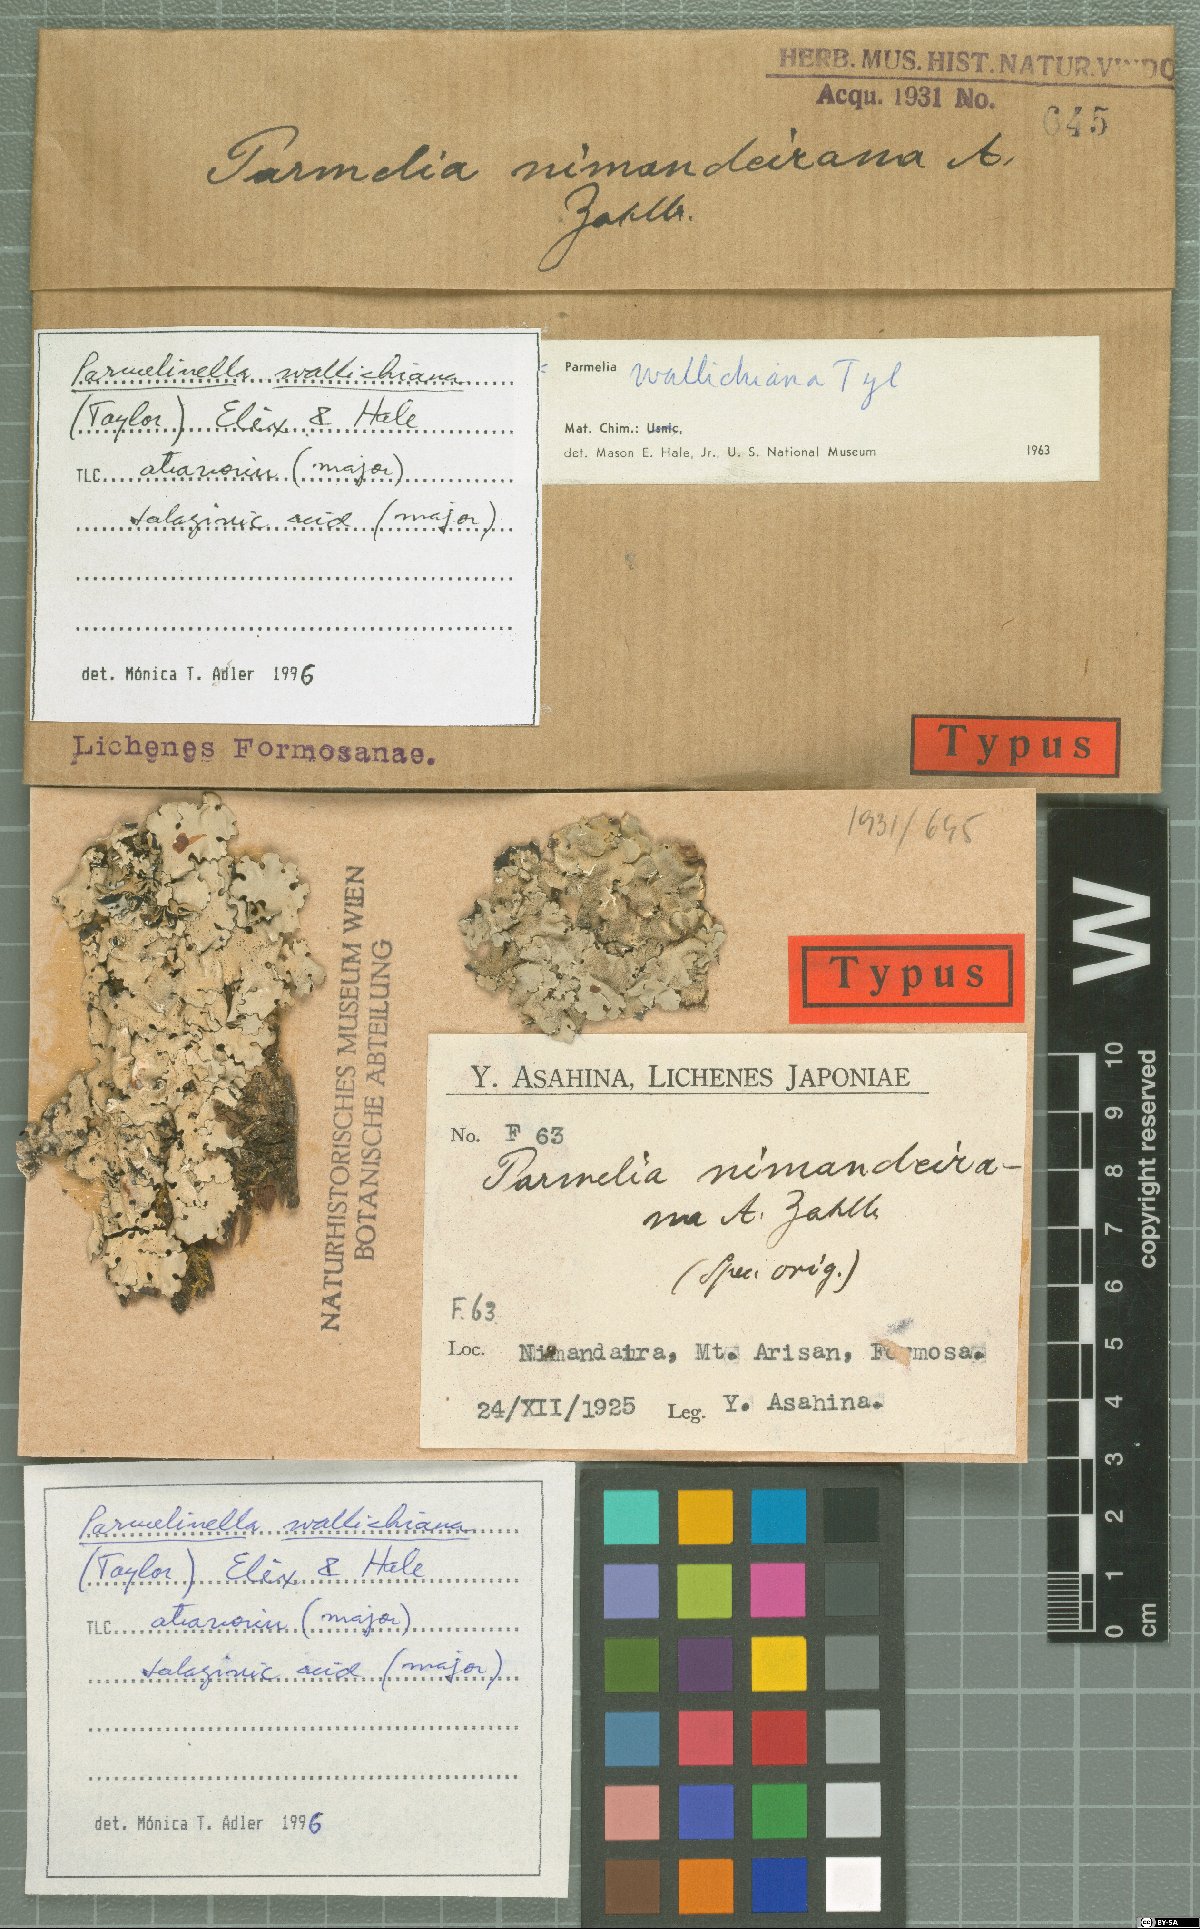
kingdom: Fungi
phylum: Ascomycota
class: Lecanoromycetes
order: Lecanorales
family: Parmeliaceae
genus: Parmelinella
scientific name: Parmelinella nimandairana
